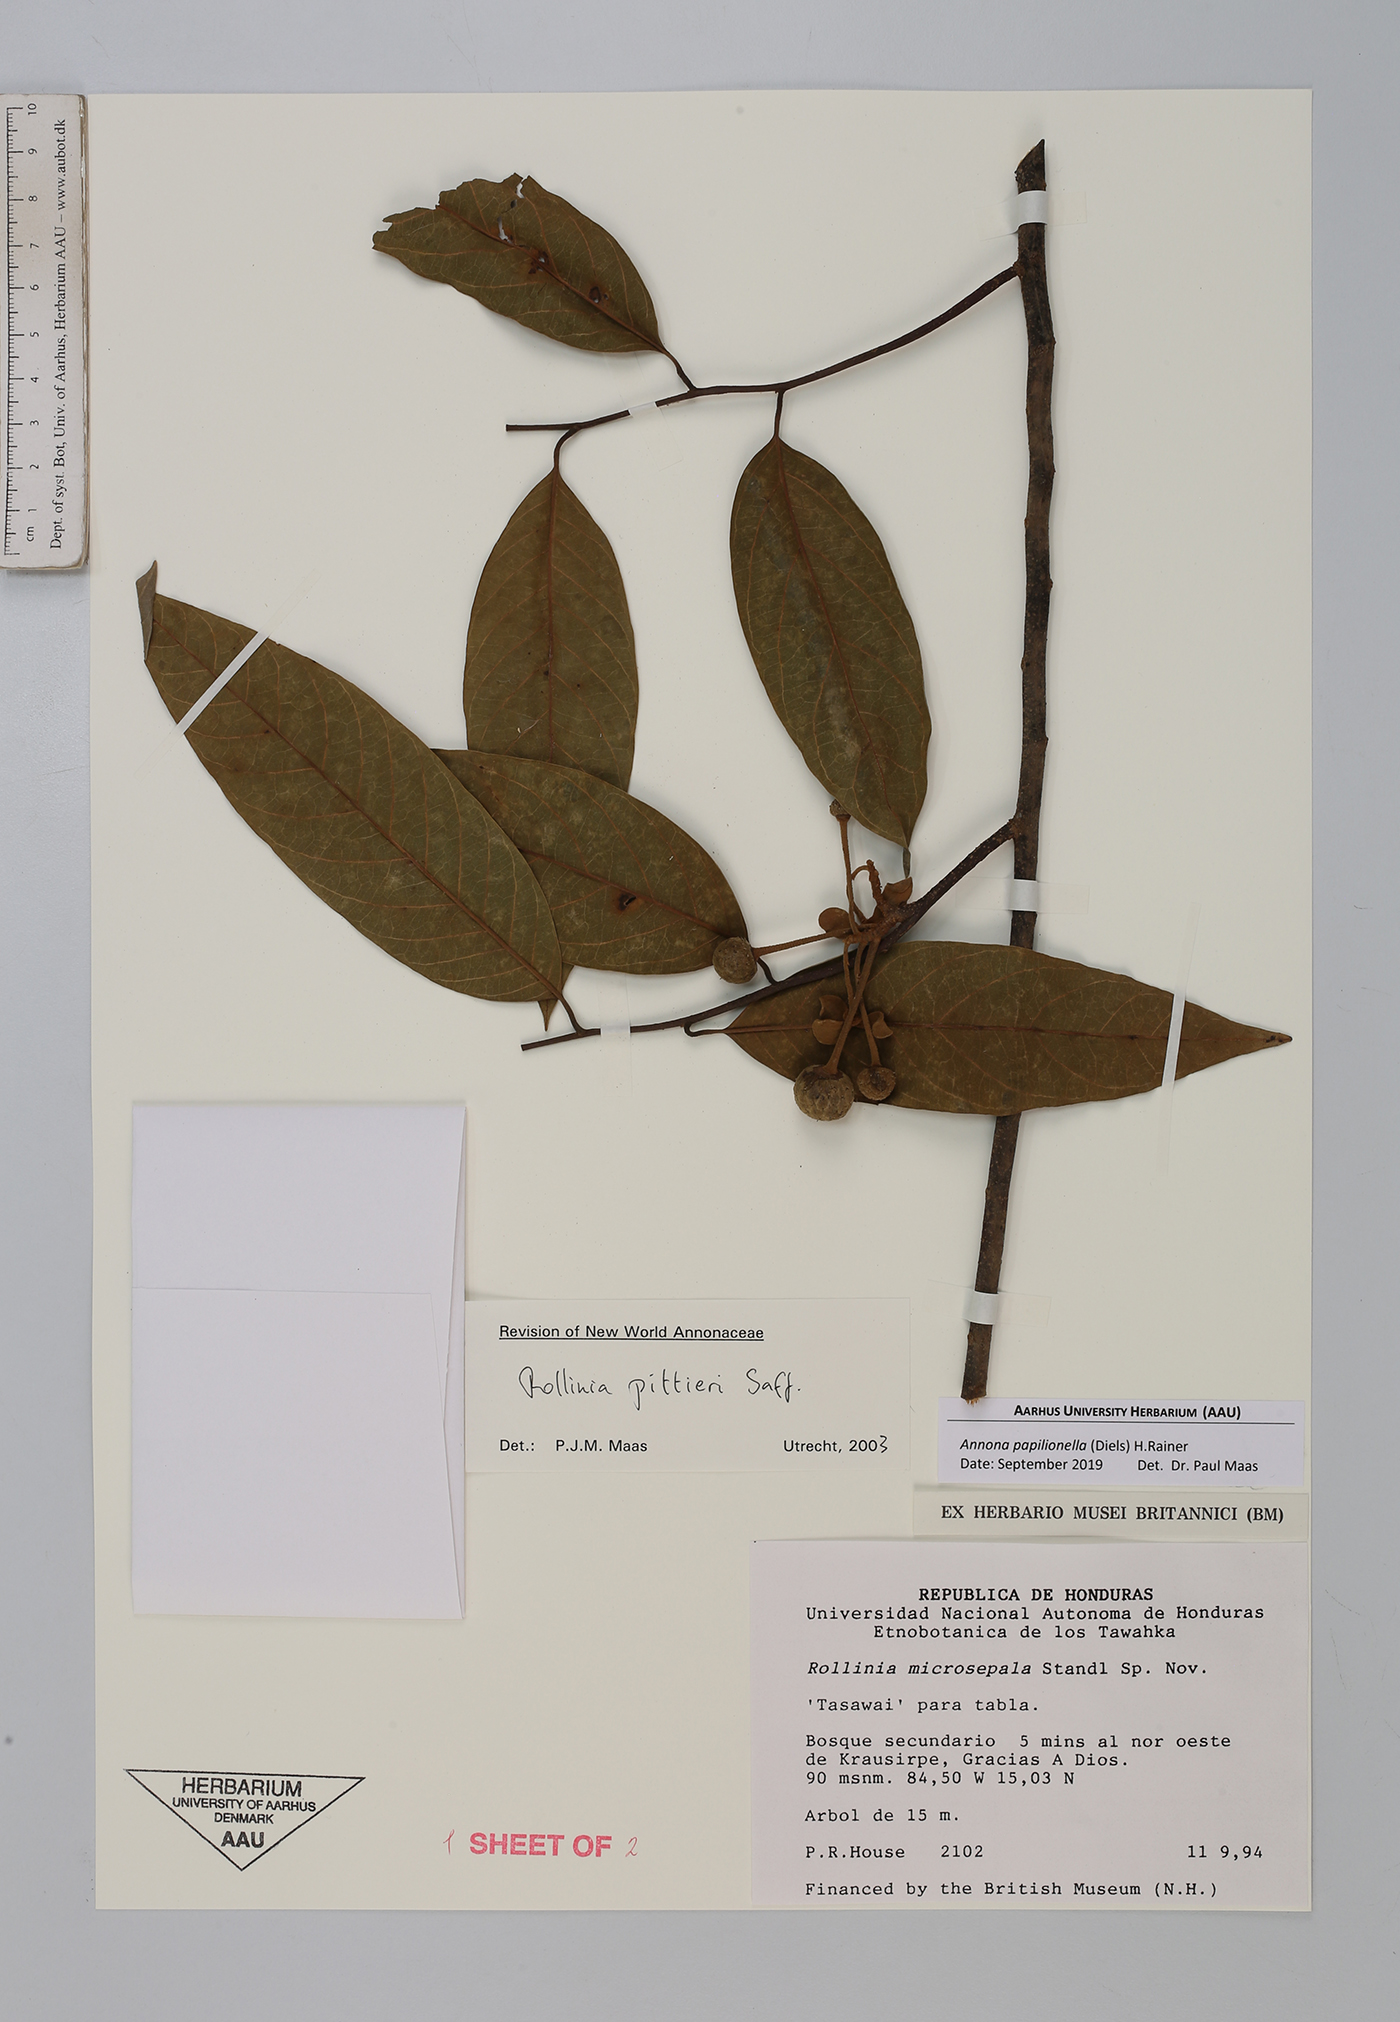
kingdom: Plantae
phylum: Tracheophyta
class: Magnoliopsida
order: Magnoliales
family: Annonaceae
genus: Annona
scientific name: Annona papilionella
